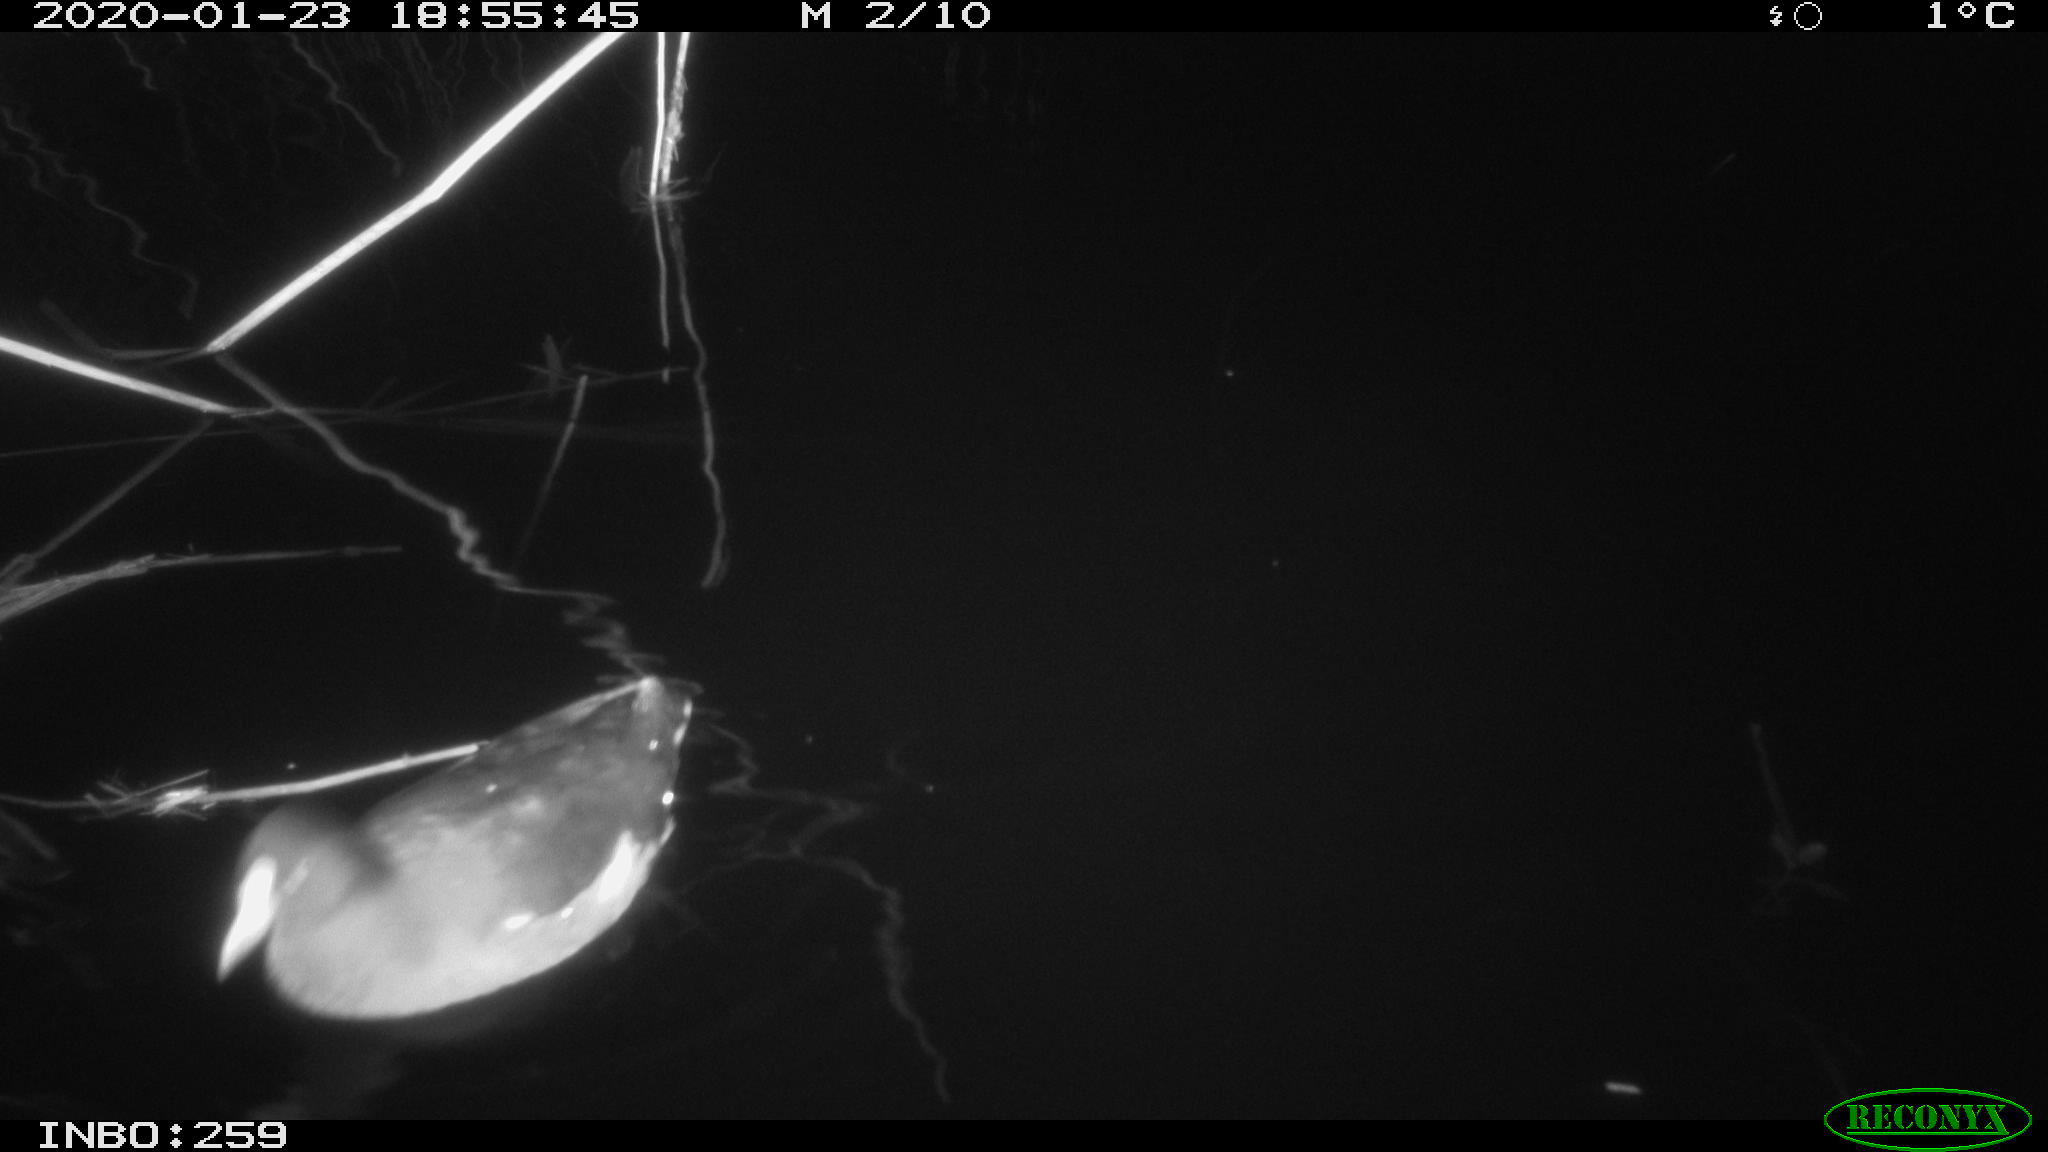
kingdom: Animalia
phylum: Chordata
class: Aves
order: Gruiformes
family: Rallidae
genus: Gallinula
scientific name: Gallinula chloropus
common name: Common moorhen
